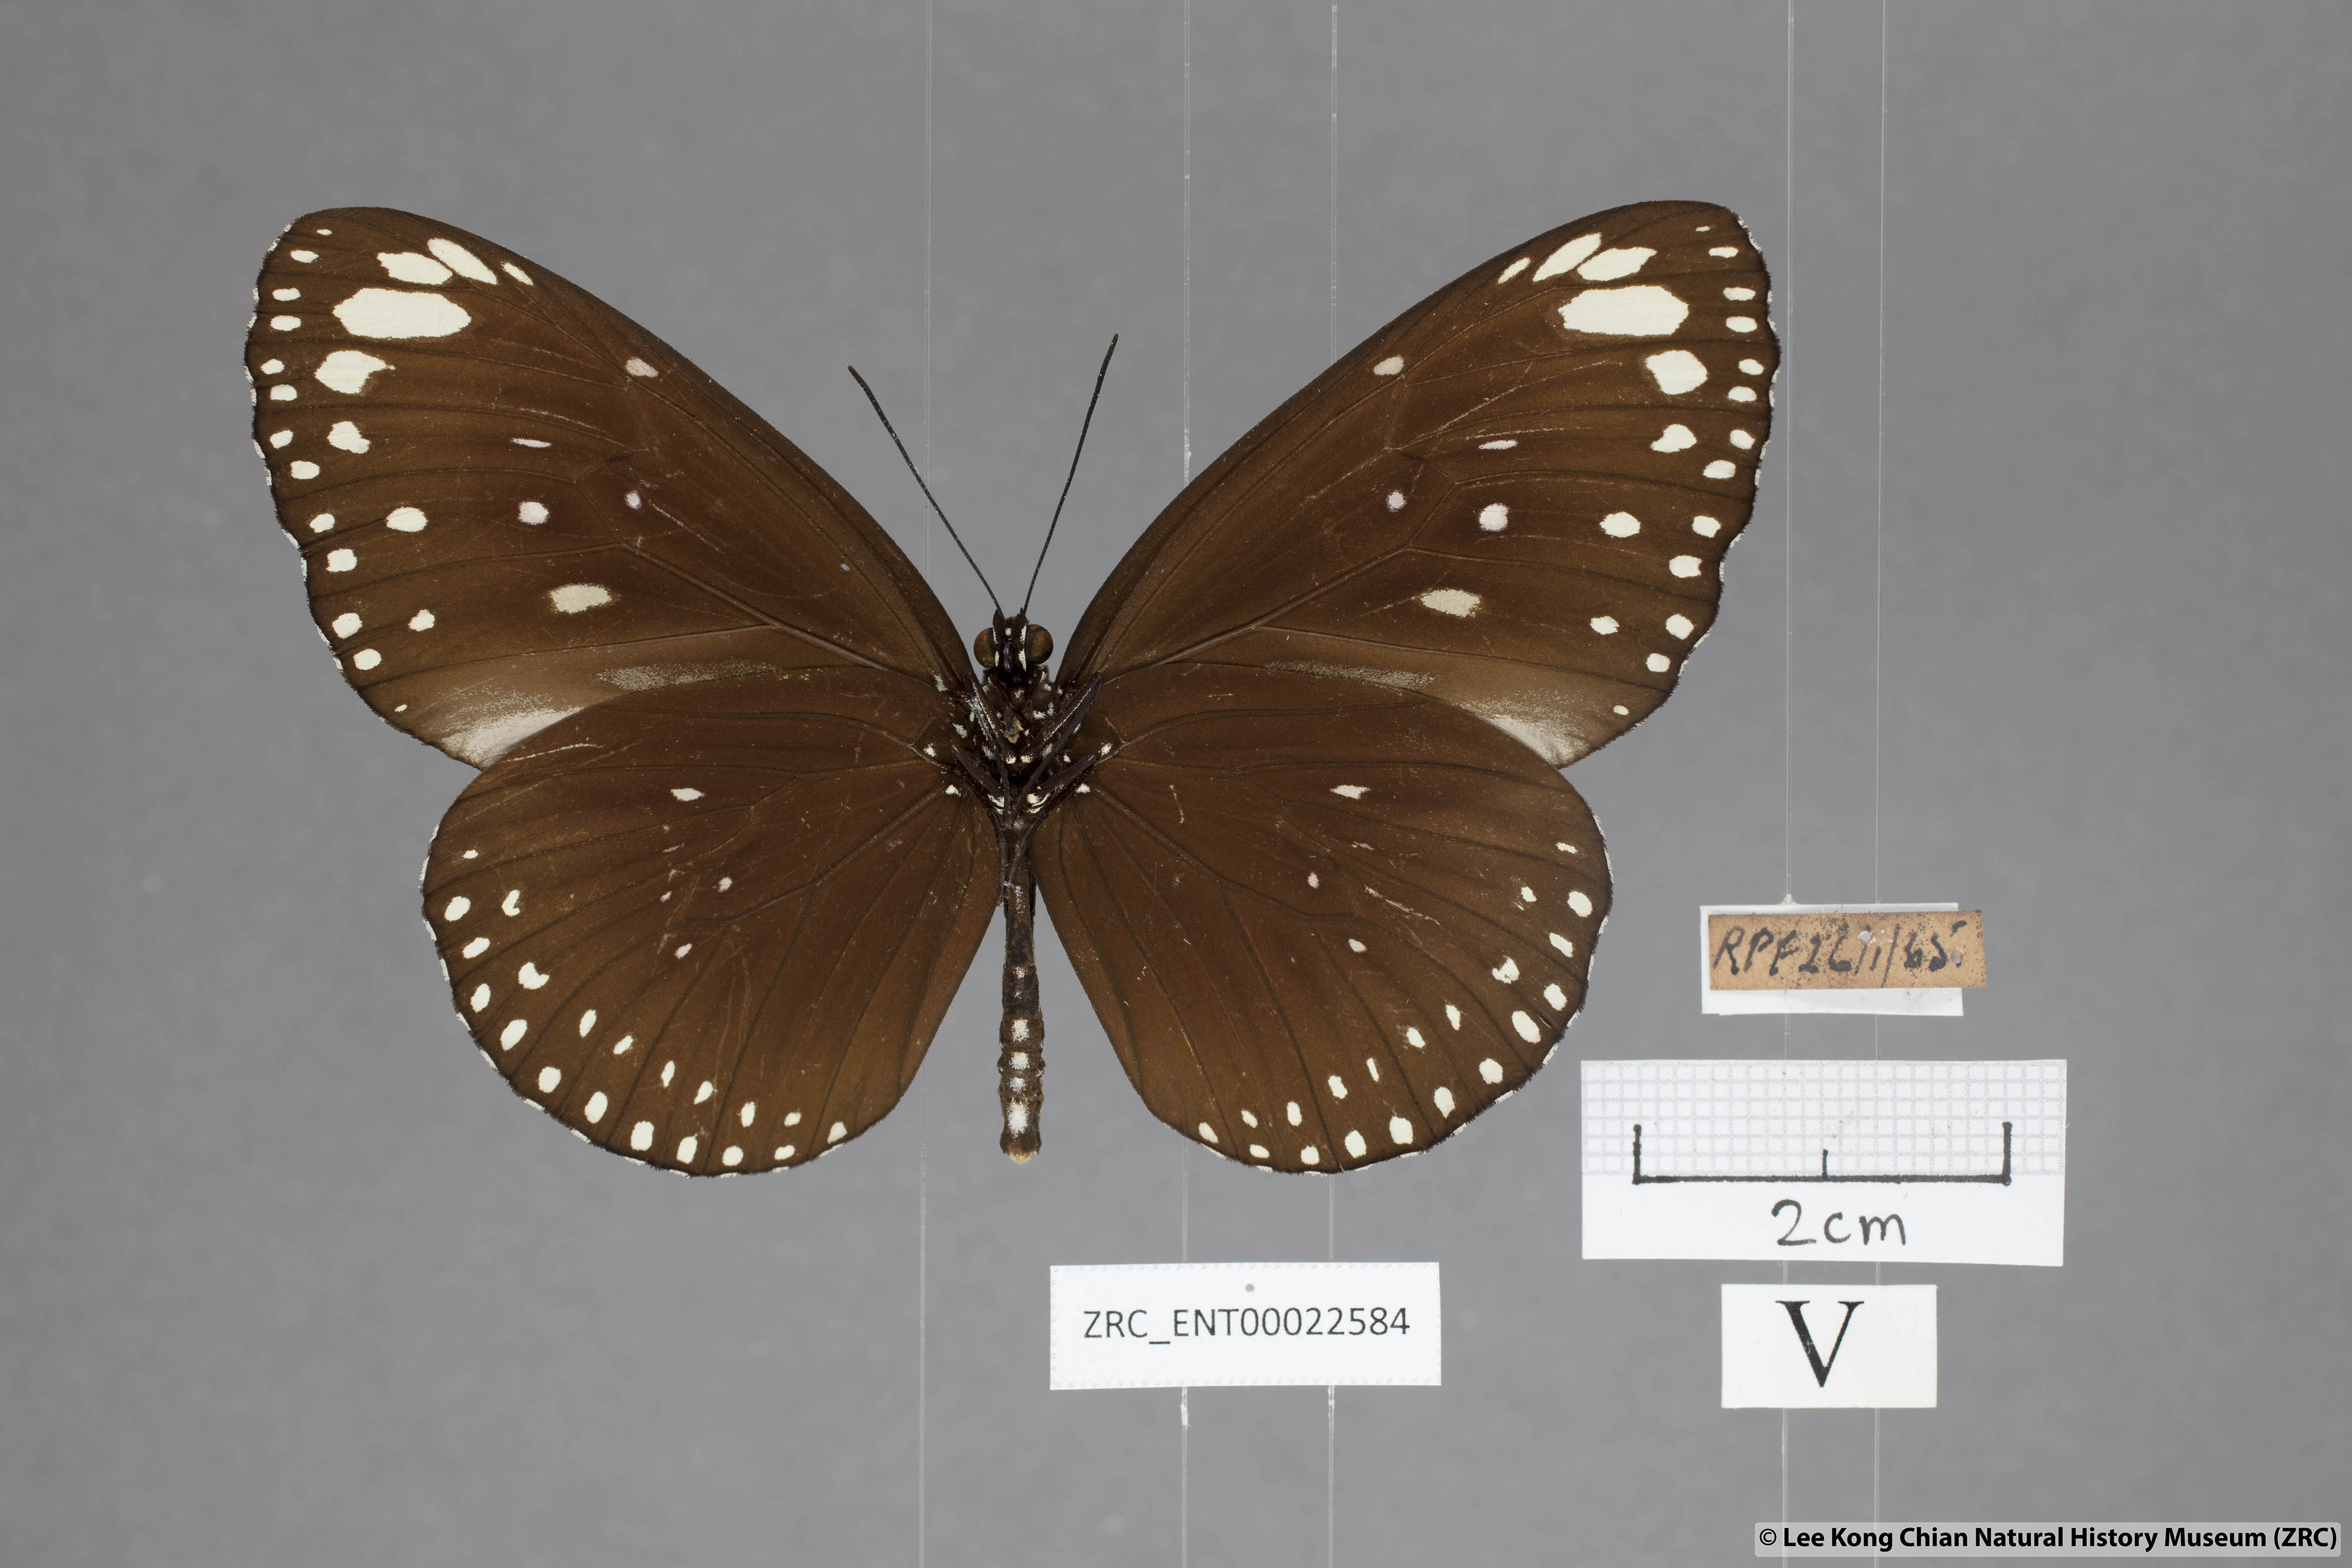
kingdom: Animalia
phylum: Arthropoda
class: Insecta
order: Lepidoptera
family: Nymphalidae
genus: Euploea
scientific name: Euploea crameri
